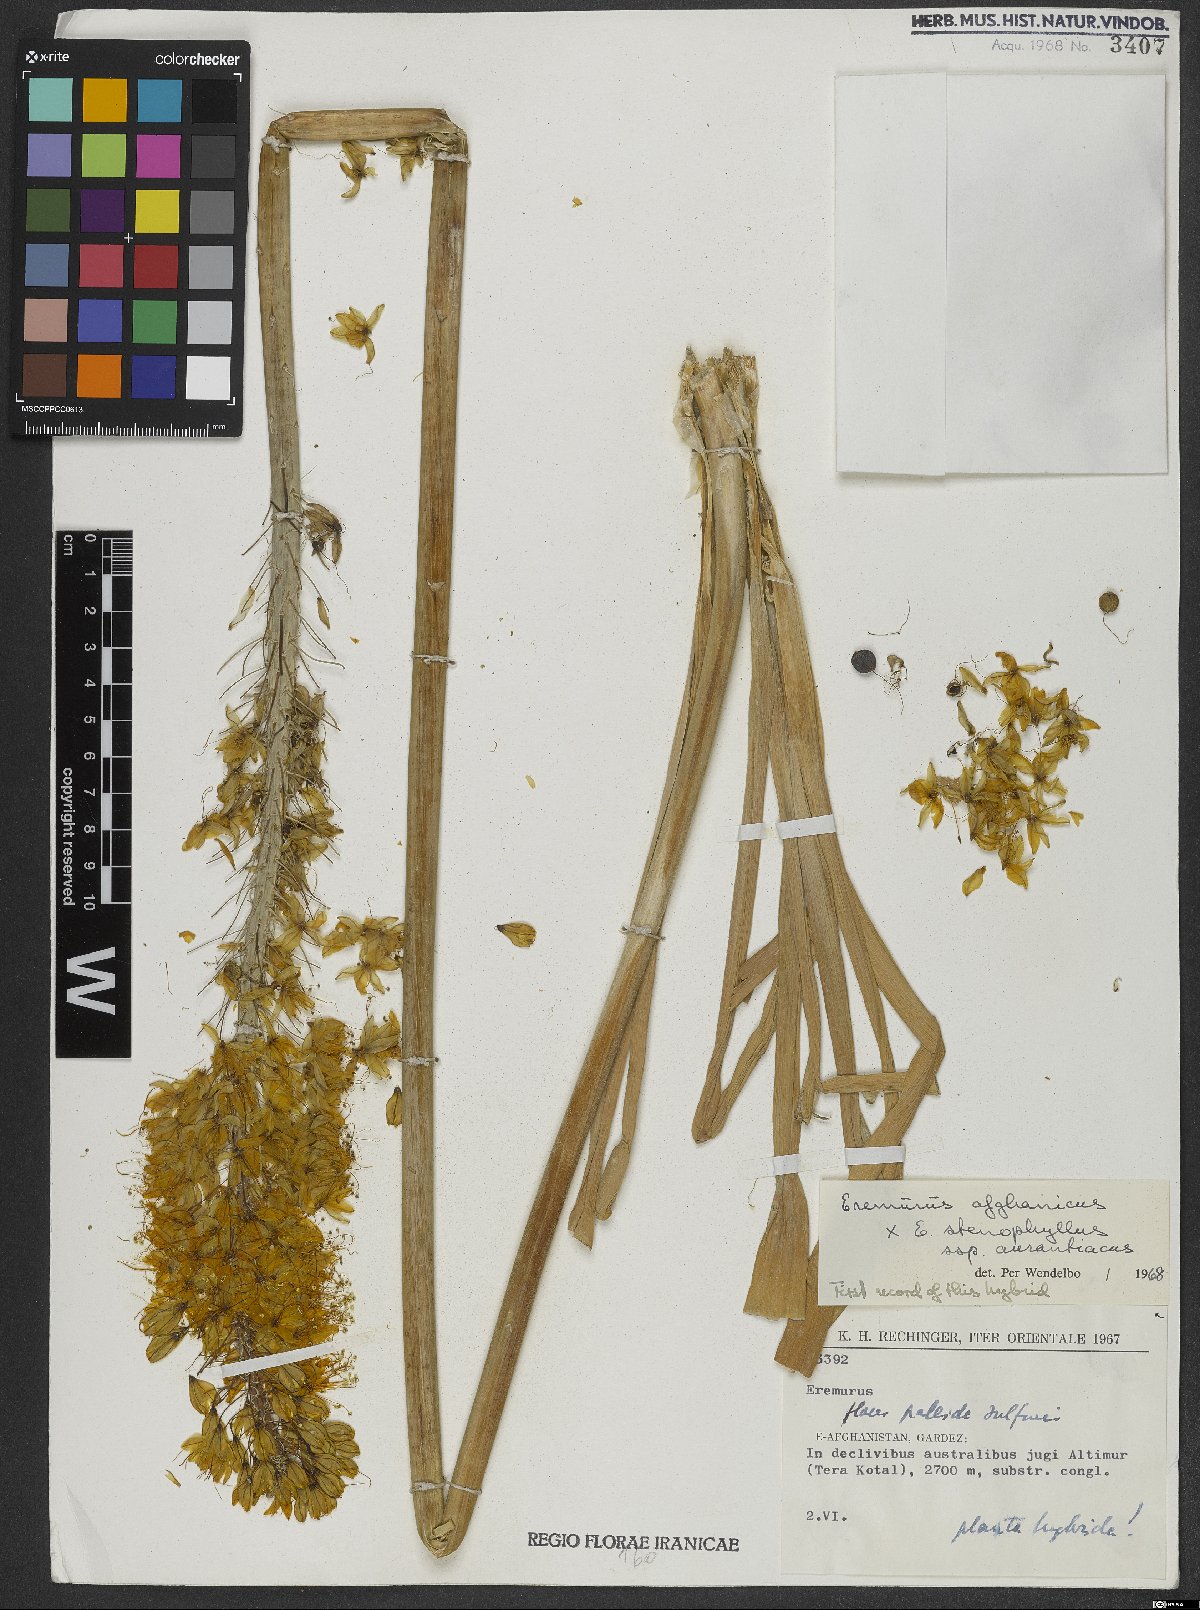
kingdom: Plantae
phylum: Tracheophyta
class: Liliopsida
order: Asparagales
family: Asphodelaceae
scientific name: Asphodelaceae
